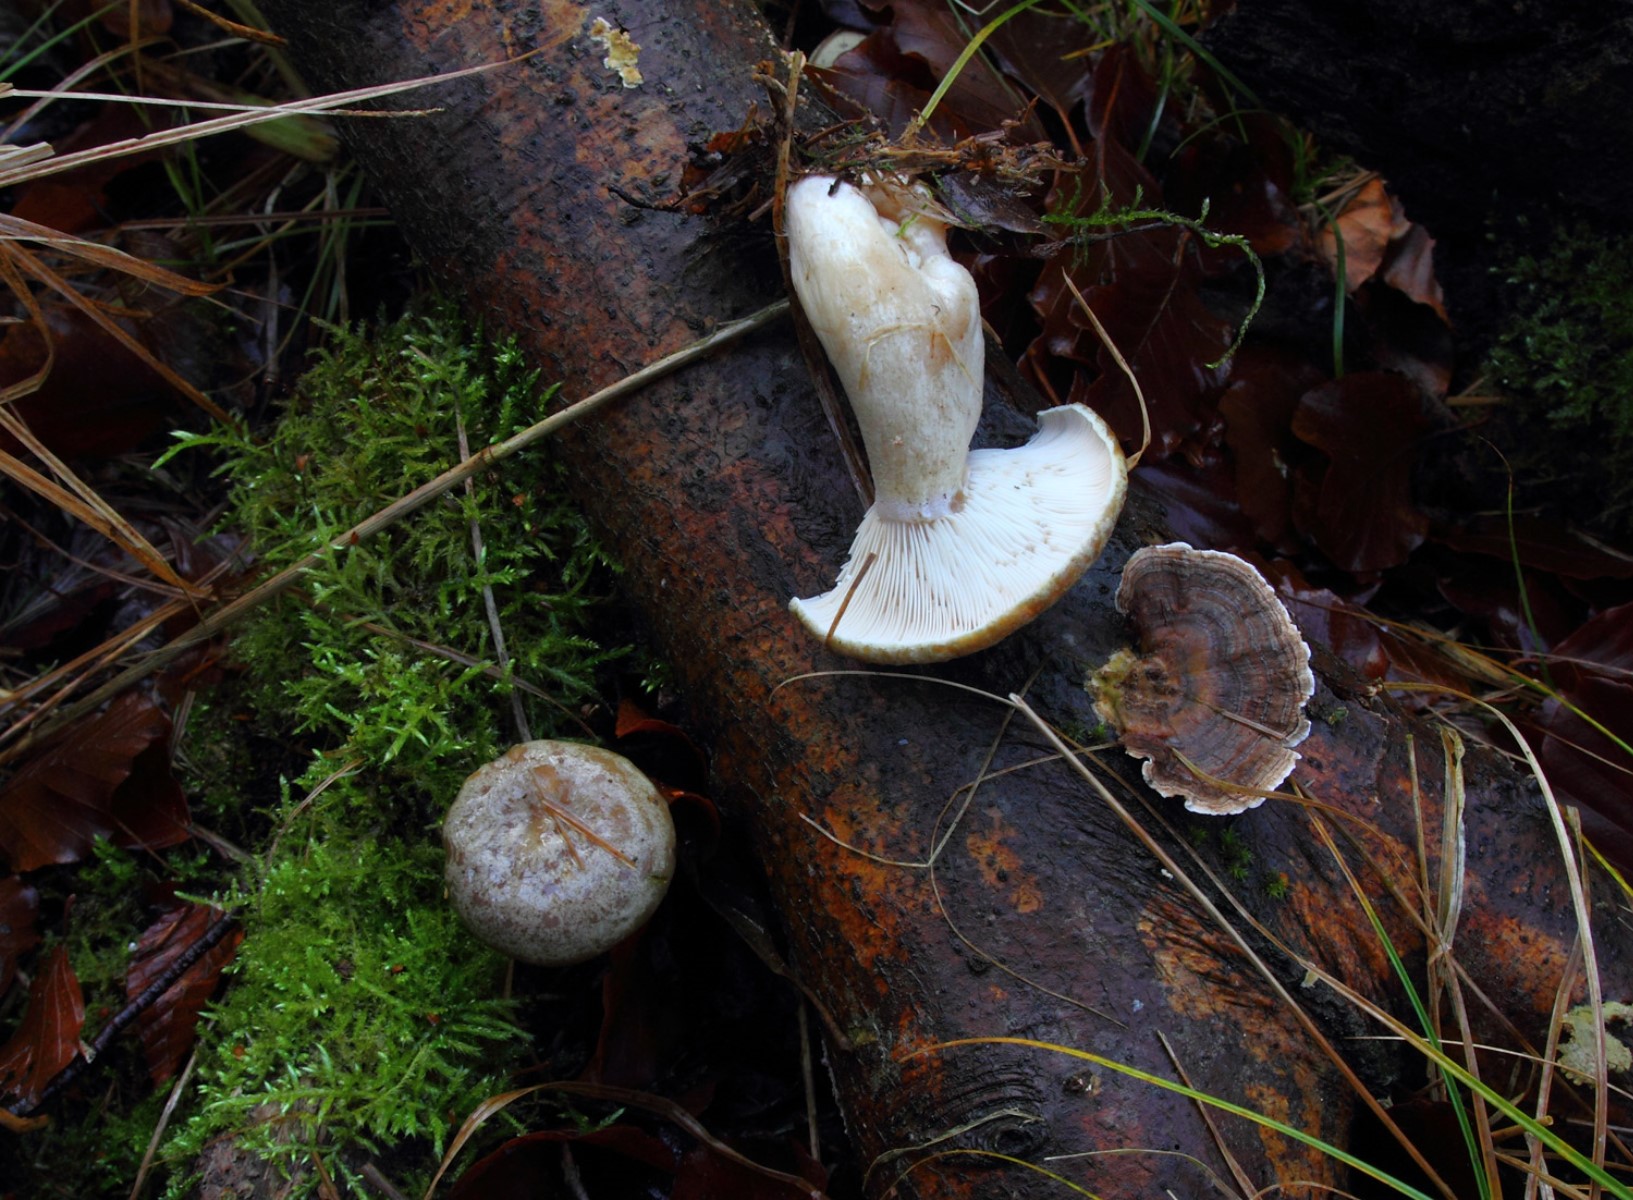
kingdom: Fungi
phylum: Basidiomycota
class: Agaricomycetes
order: Russulales
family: Russulaceae
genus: Lactarius
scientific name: Lactarius blennius
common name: dråbeplettet mælkehat
